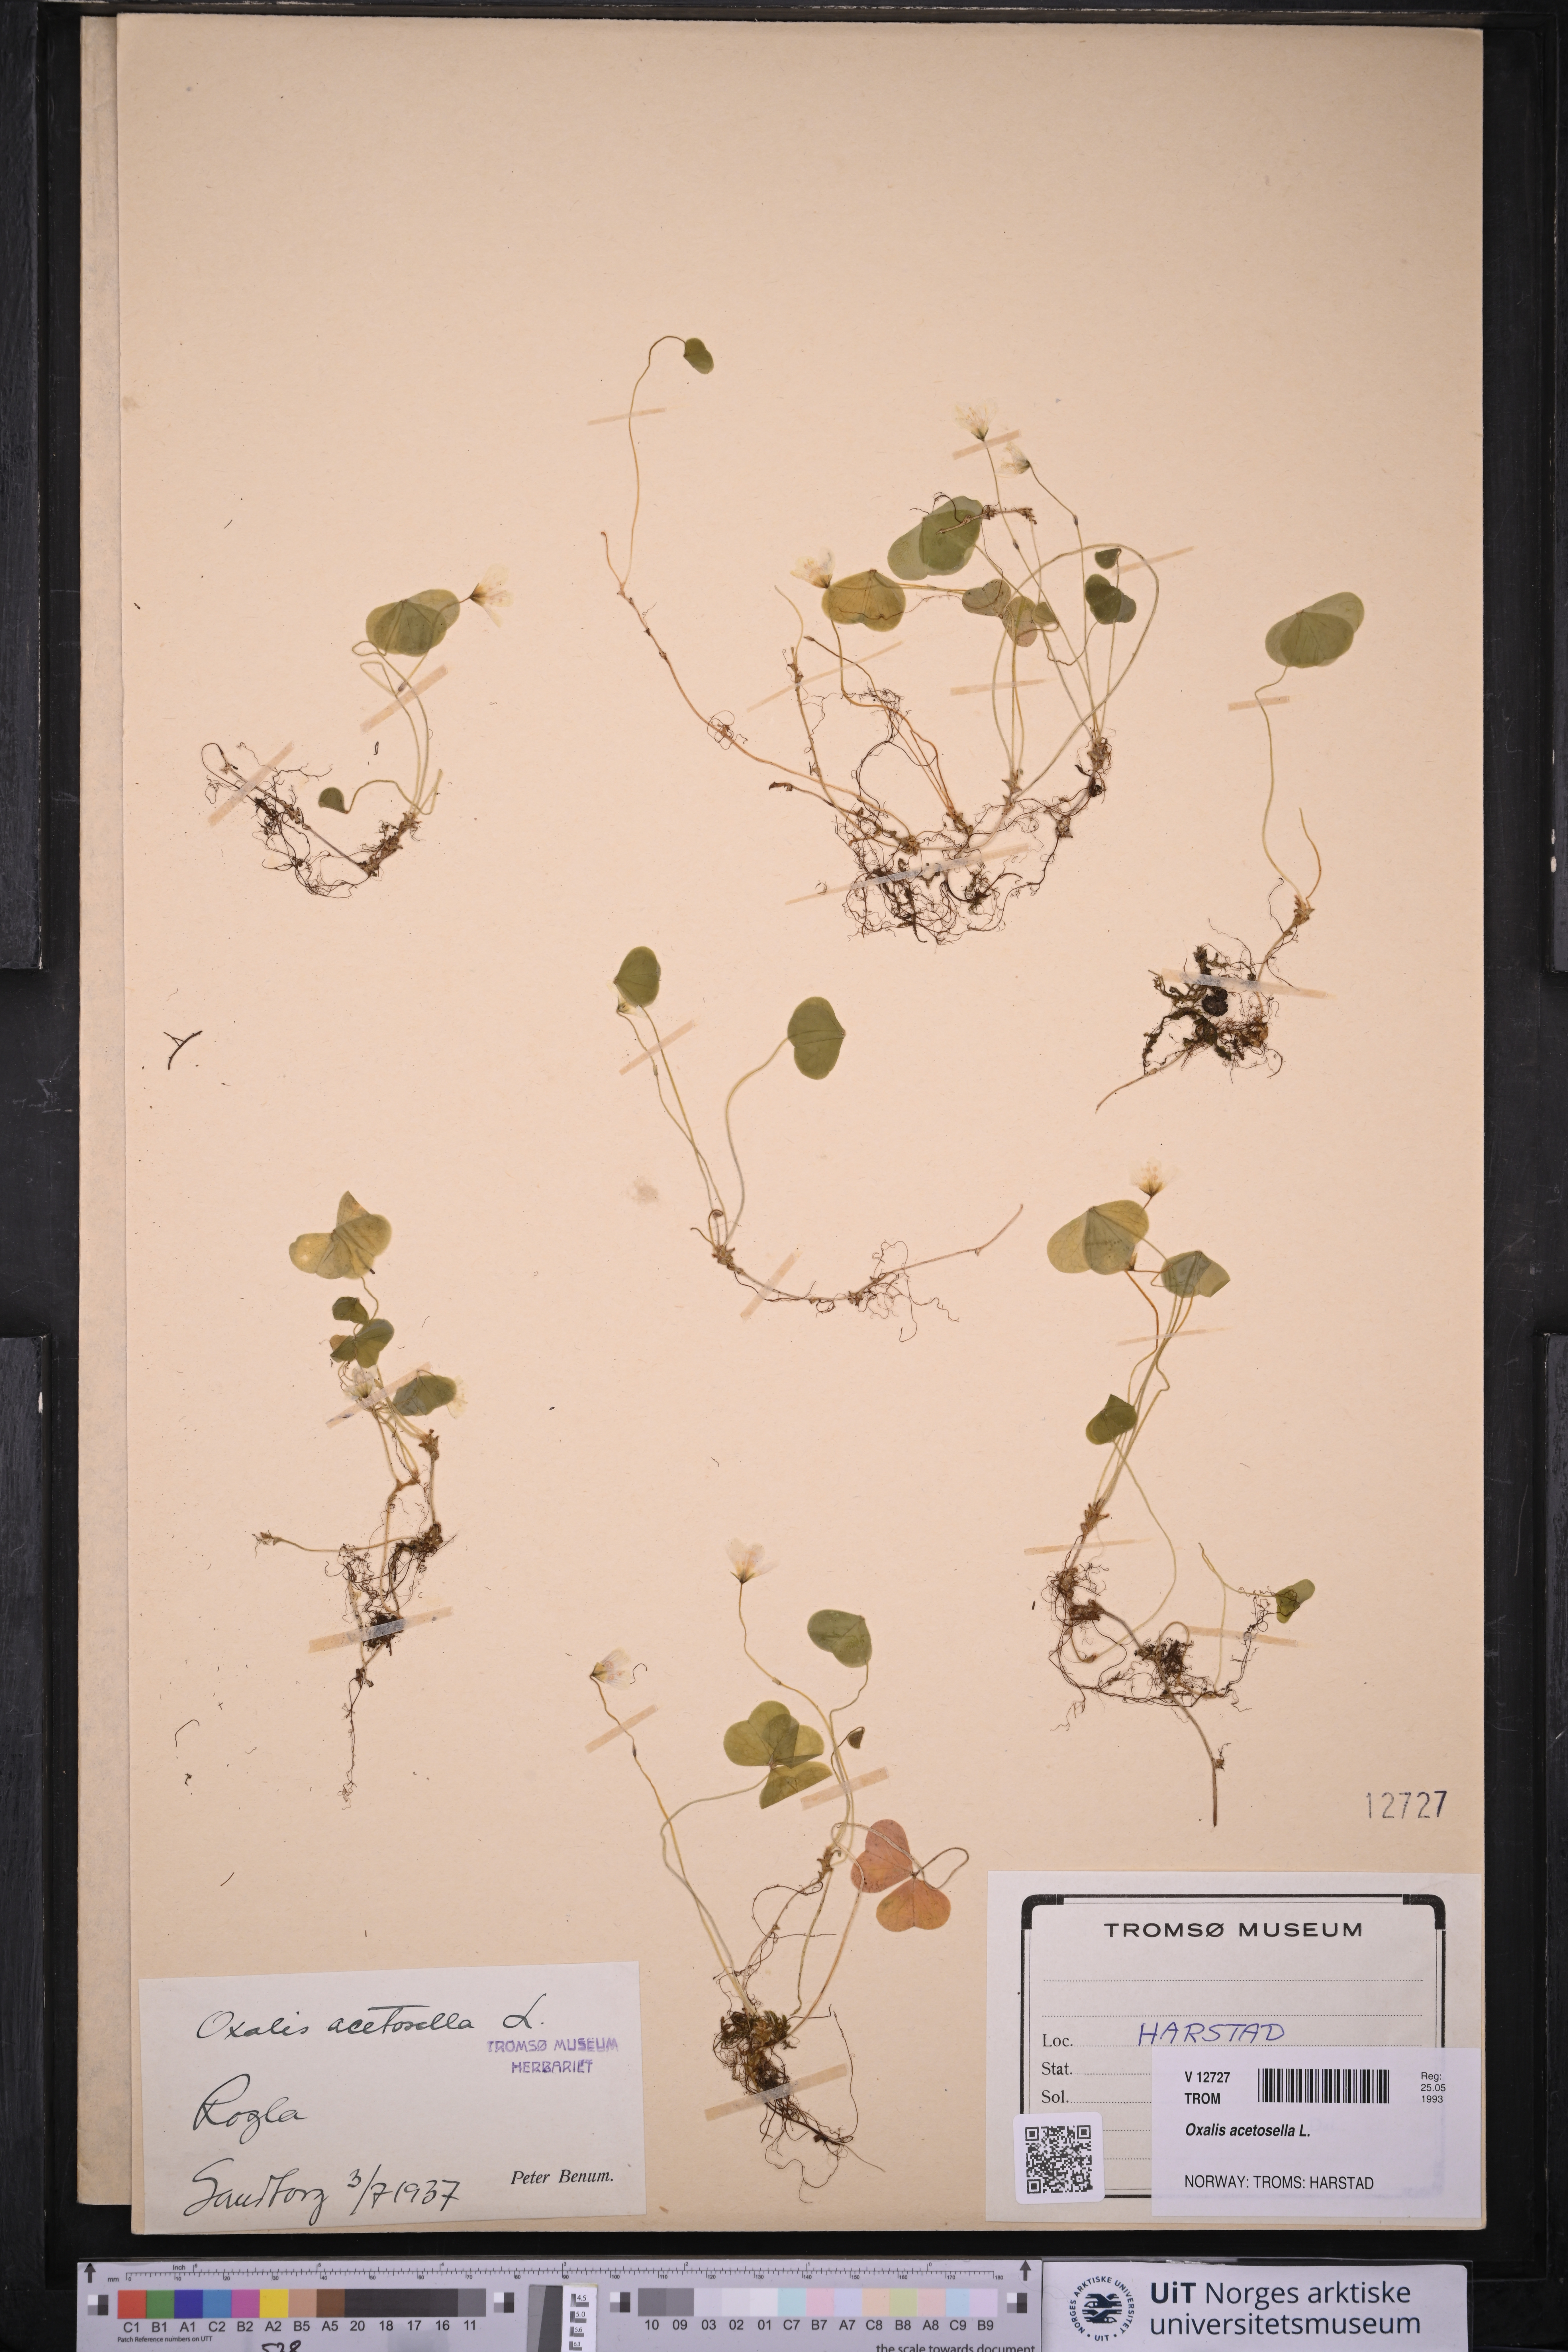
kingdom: Plantae
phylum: Tracheophyta
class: Magnoliopsida
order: Oxalidales
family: Oxalidaceae
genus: Oxalis
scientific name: Oxalis acetosella
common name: Wood-sorrel
